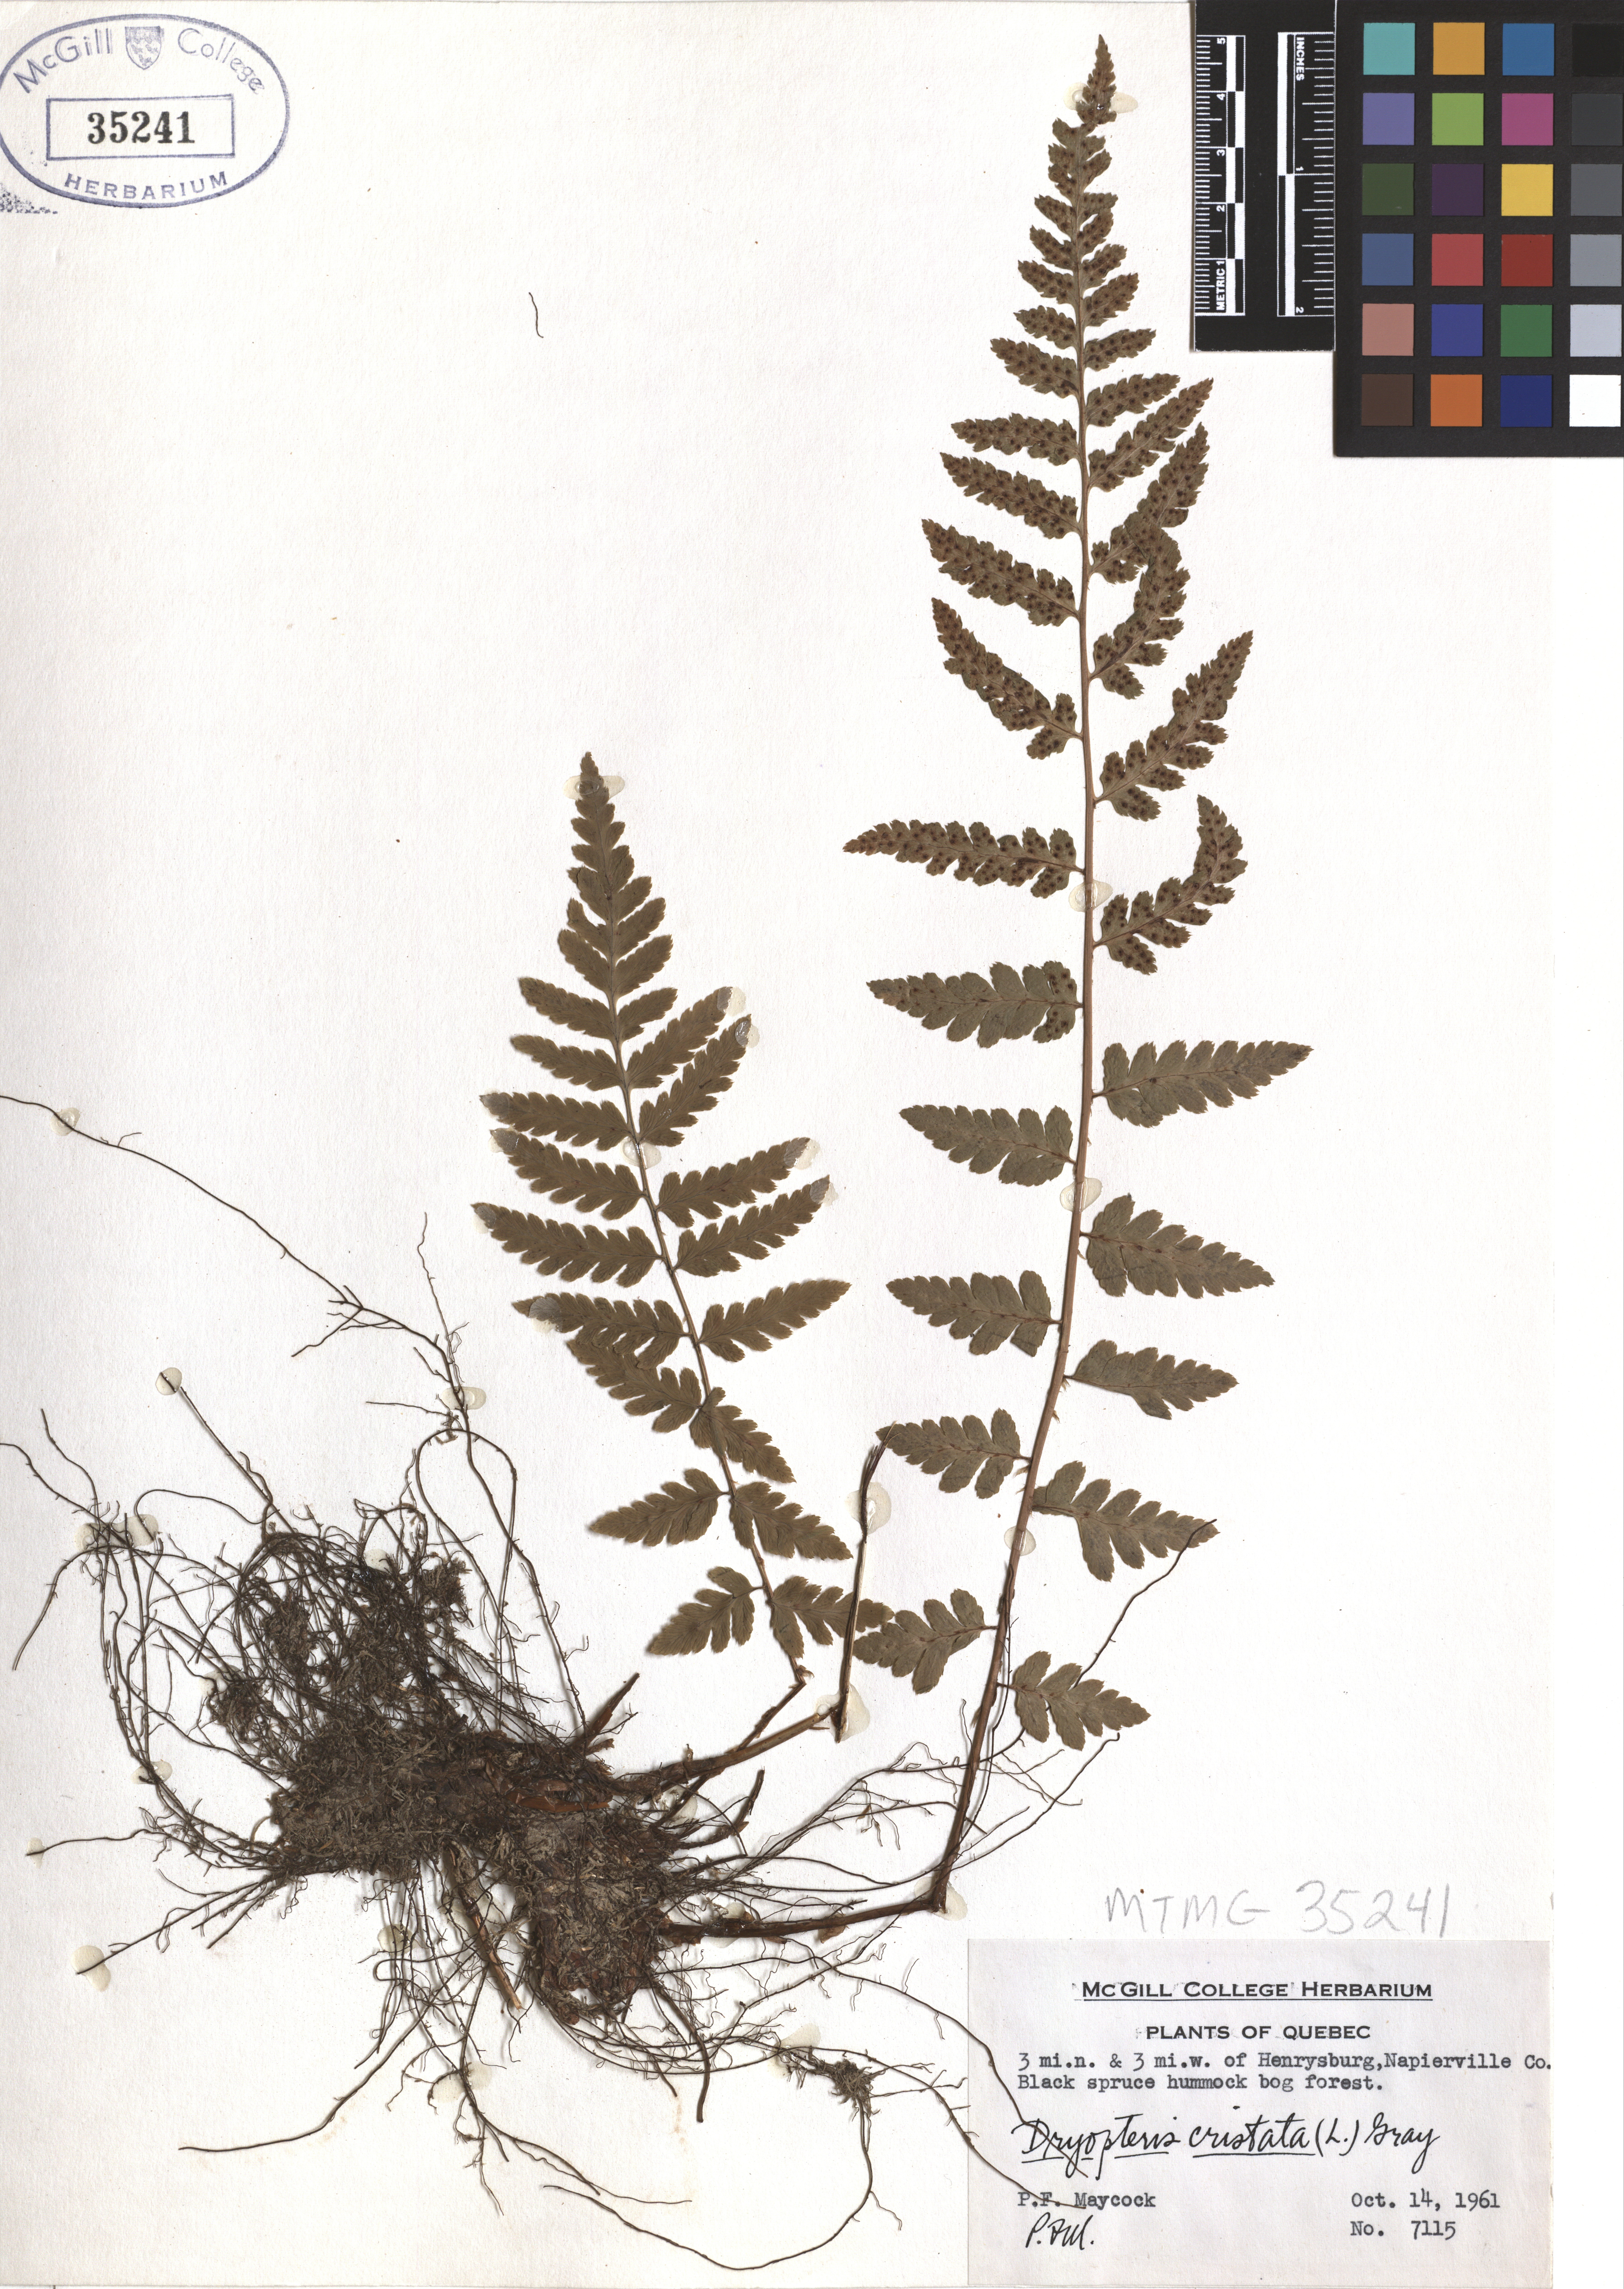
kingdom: Plantae
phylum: Tracheophyta
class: Polypodiopsida
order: Polypodiales
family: Dryopteridaceae
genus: Dryopteris
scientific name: Dryopteris cristata
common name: Crested wood fern
